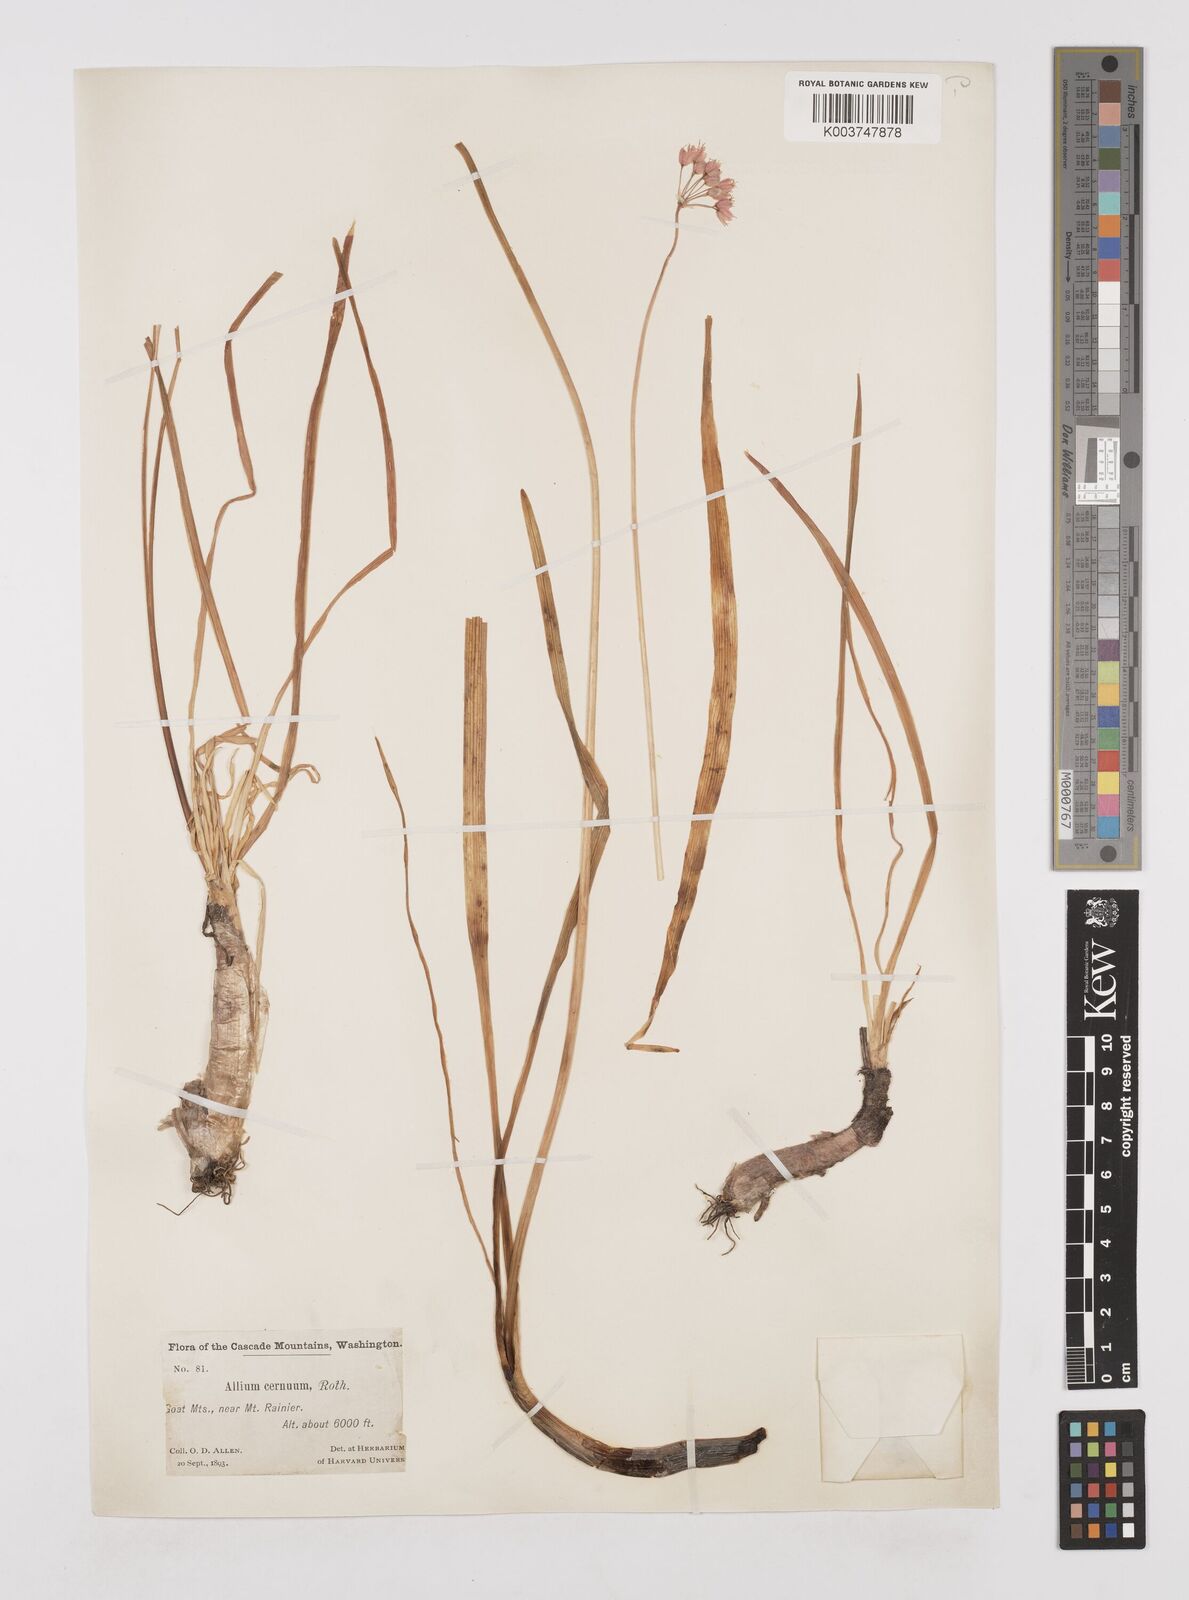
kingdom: Plantae
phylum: Tracheophyta
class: Liliopsida
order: Asparagales
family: Amaryllidaceae
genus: Allium
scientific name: Allium cernuum
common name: Nodding onion
